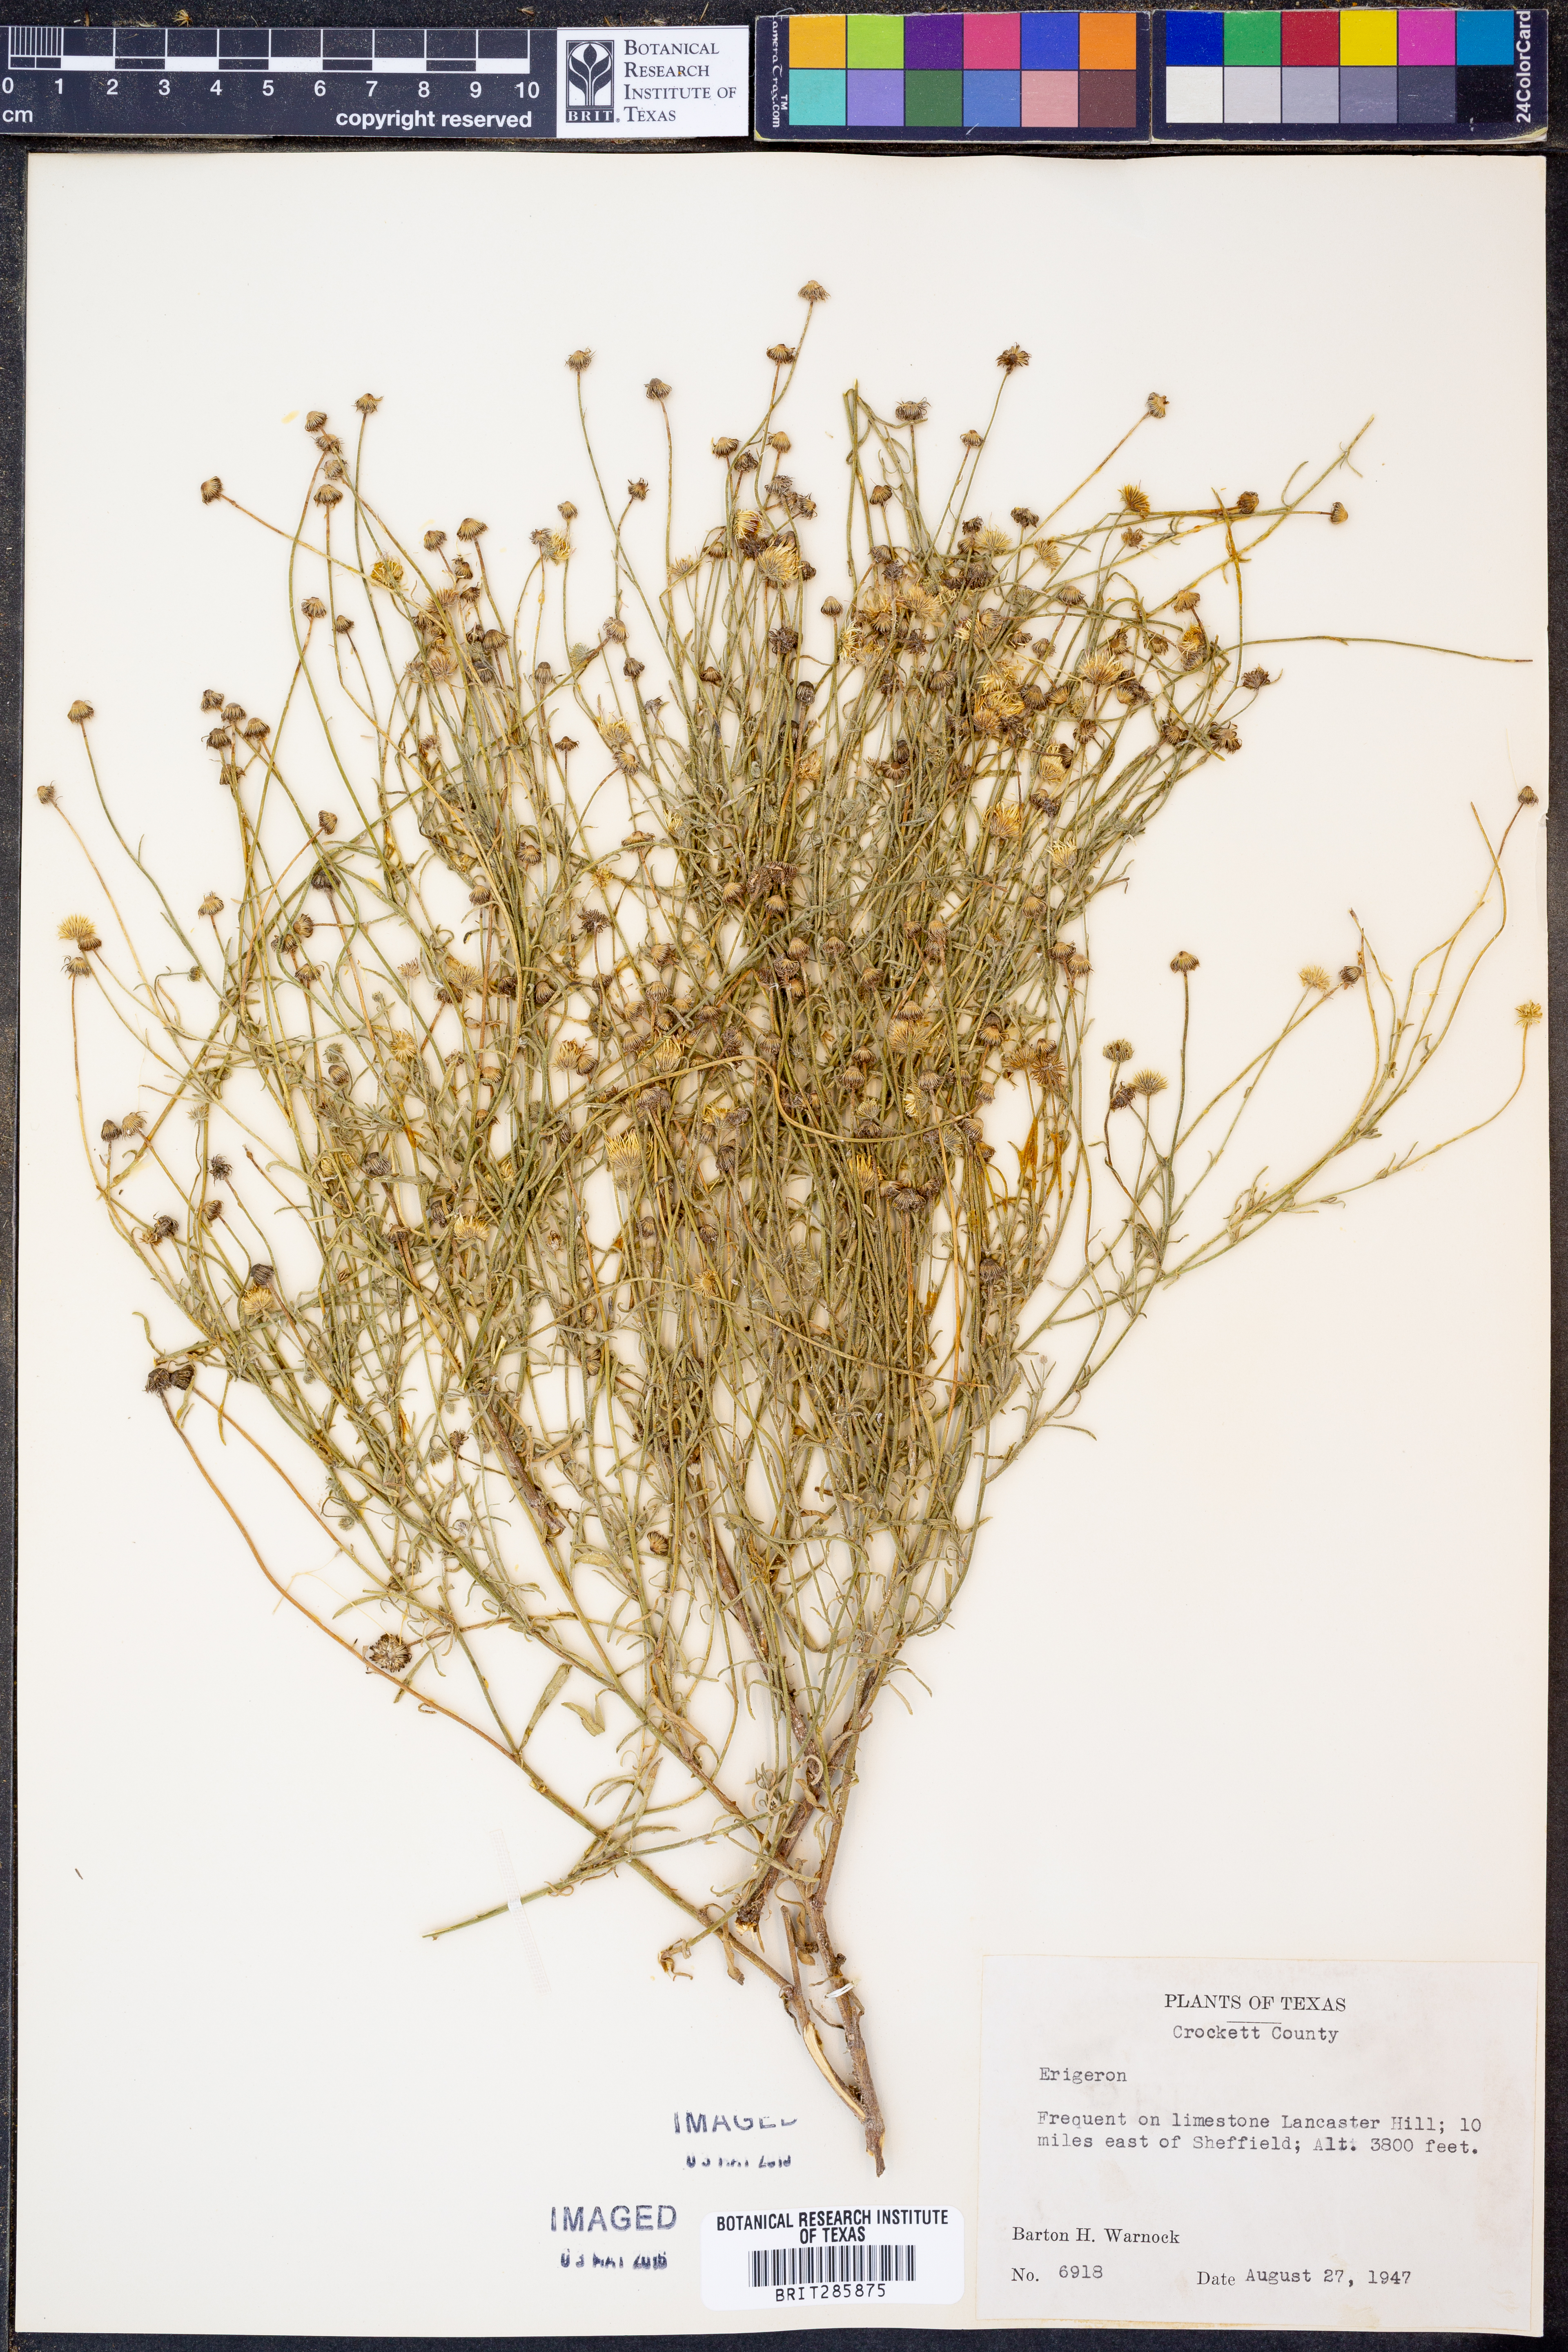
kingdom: Plantae
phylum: Tracheophyta
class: Magnoliopsida
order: Asterales
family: Asteraceae
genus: Erigeron
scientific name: Erigeron
